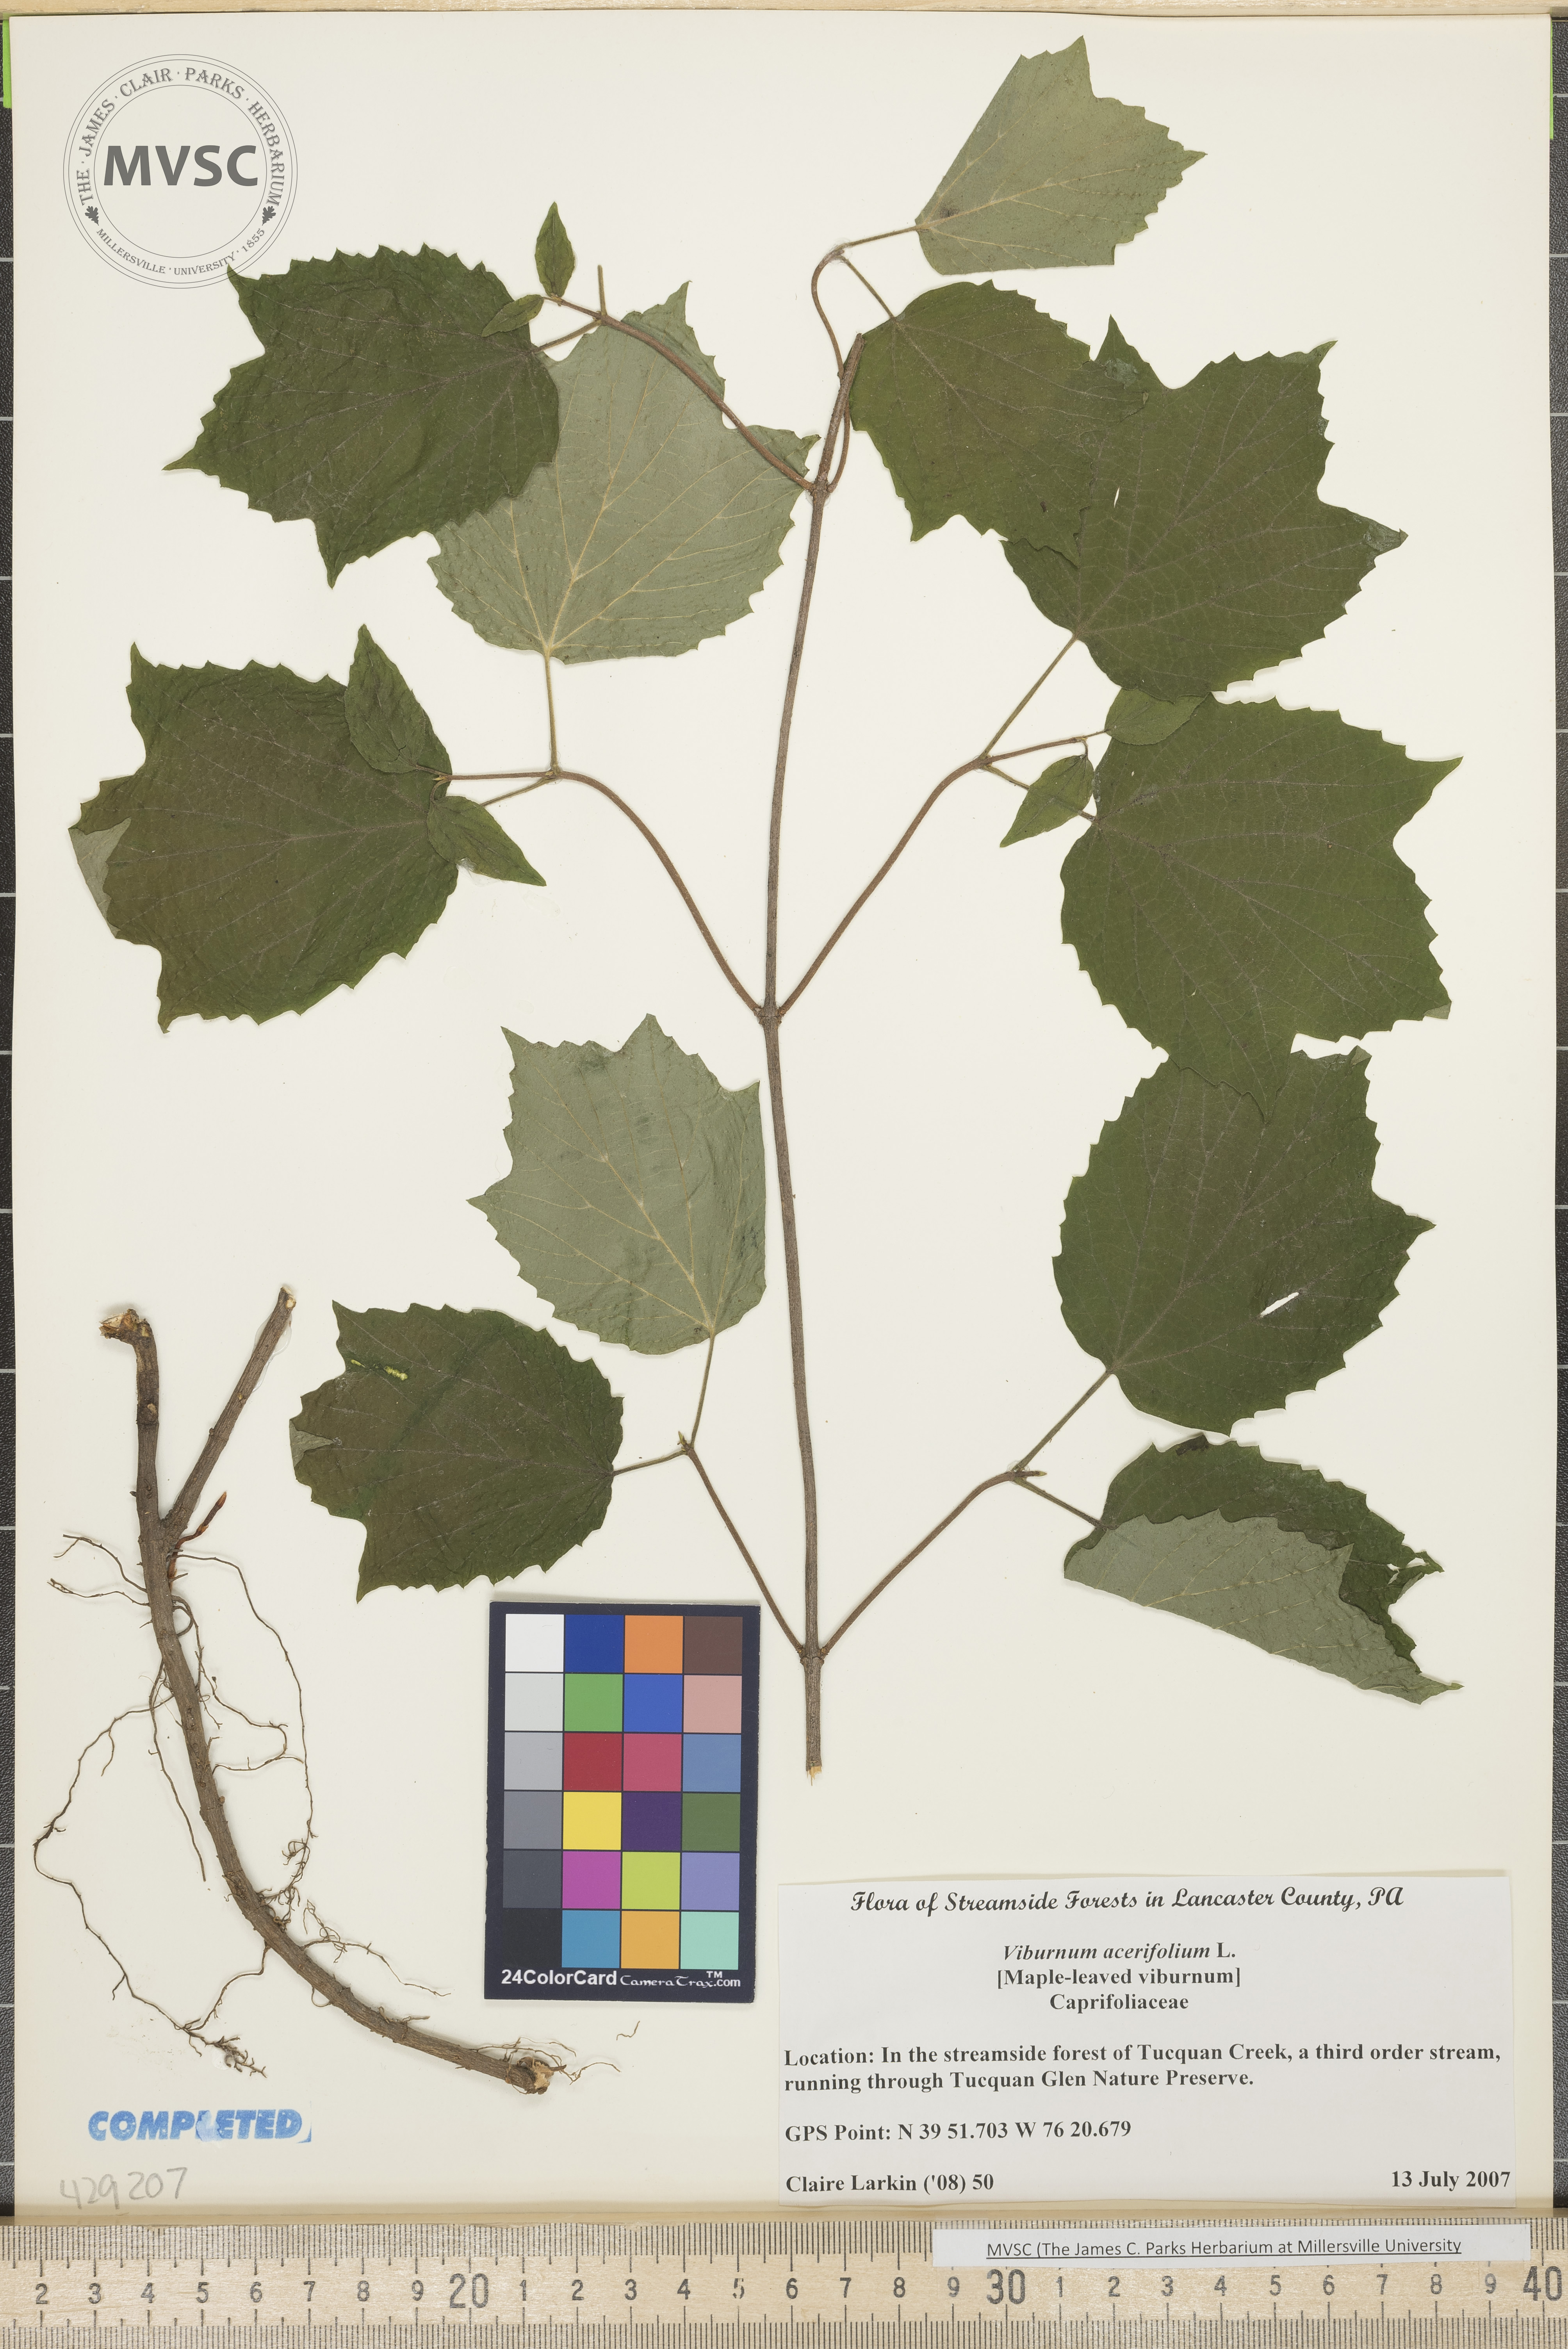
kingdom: Plantae
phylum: Tracheophyta
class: Magnoliopsida
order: Dipsacales
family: Viburnaceae
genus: Viburnum
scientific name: Viburnum acerifolium
